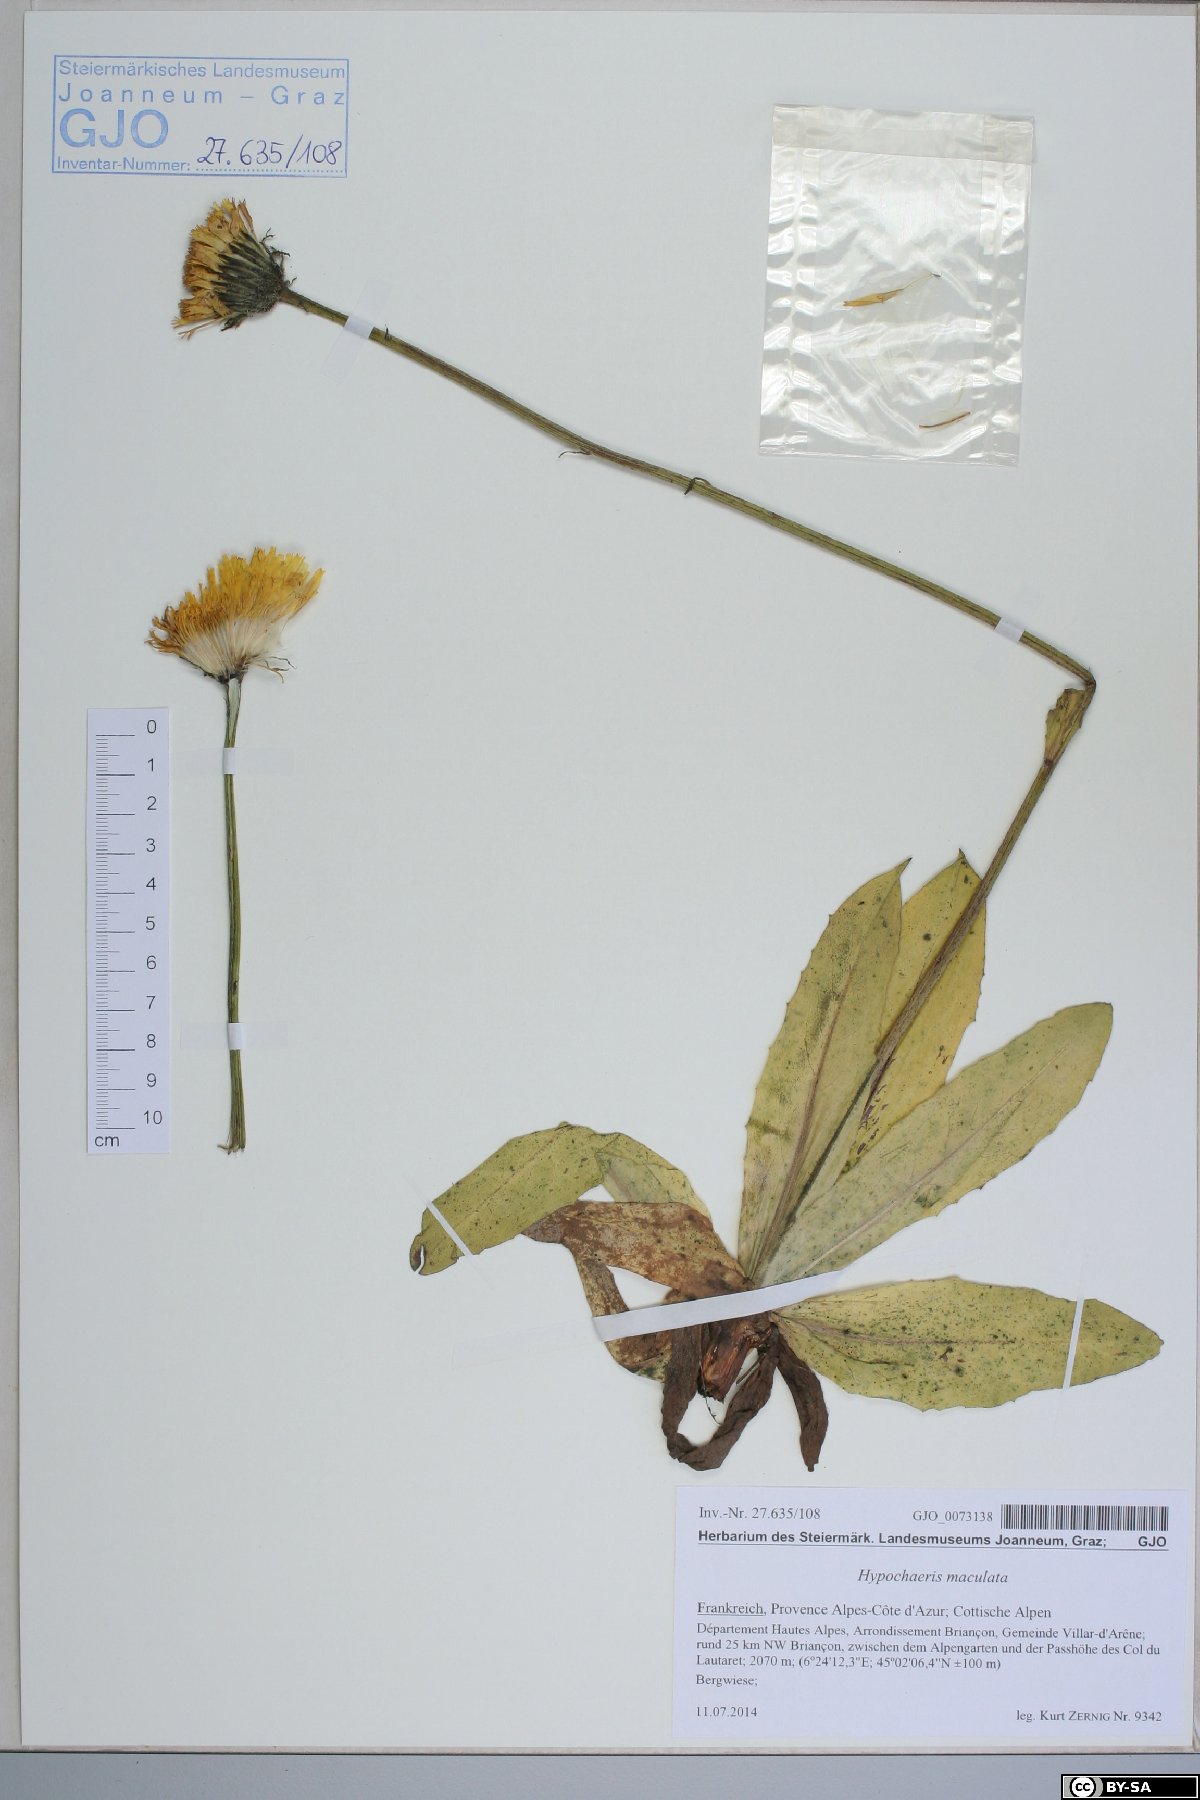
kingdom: Plantae
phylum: Tracheophyta
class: Magnoliopsida
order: Asterales
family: Asteraceae
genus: Trommsdorffia
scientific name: Trommsdorffia maculata
